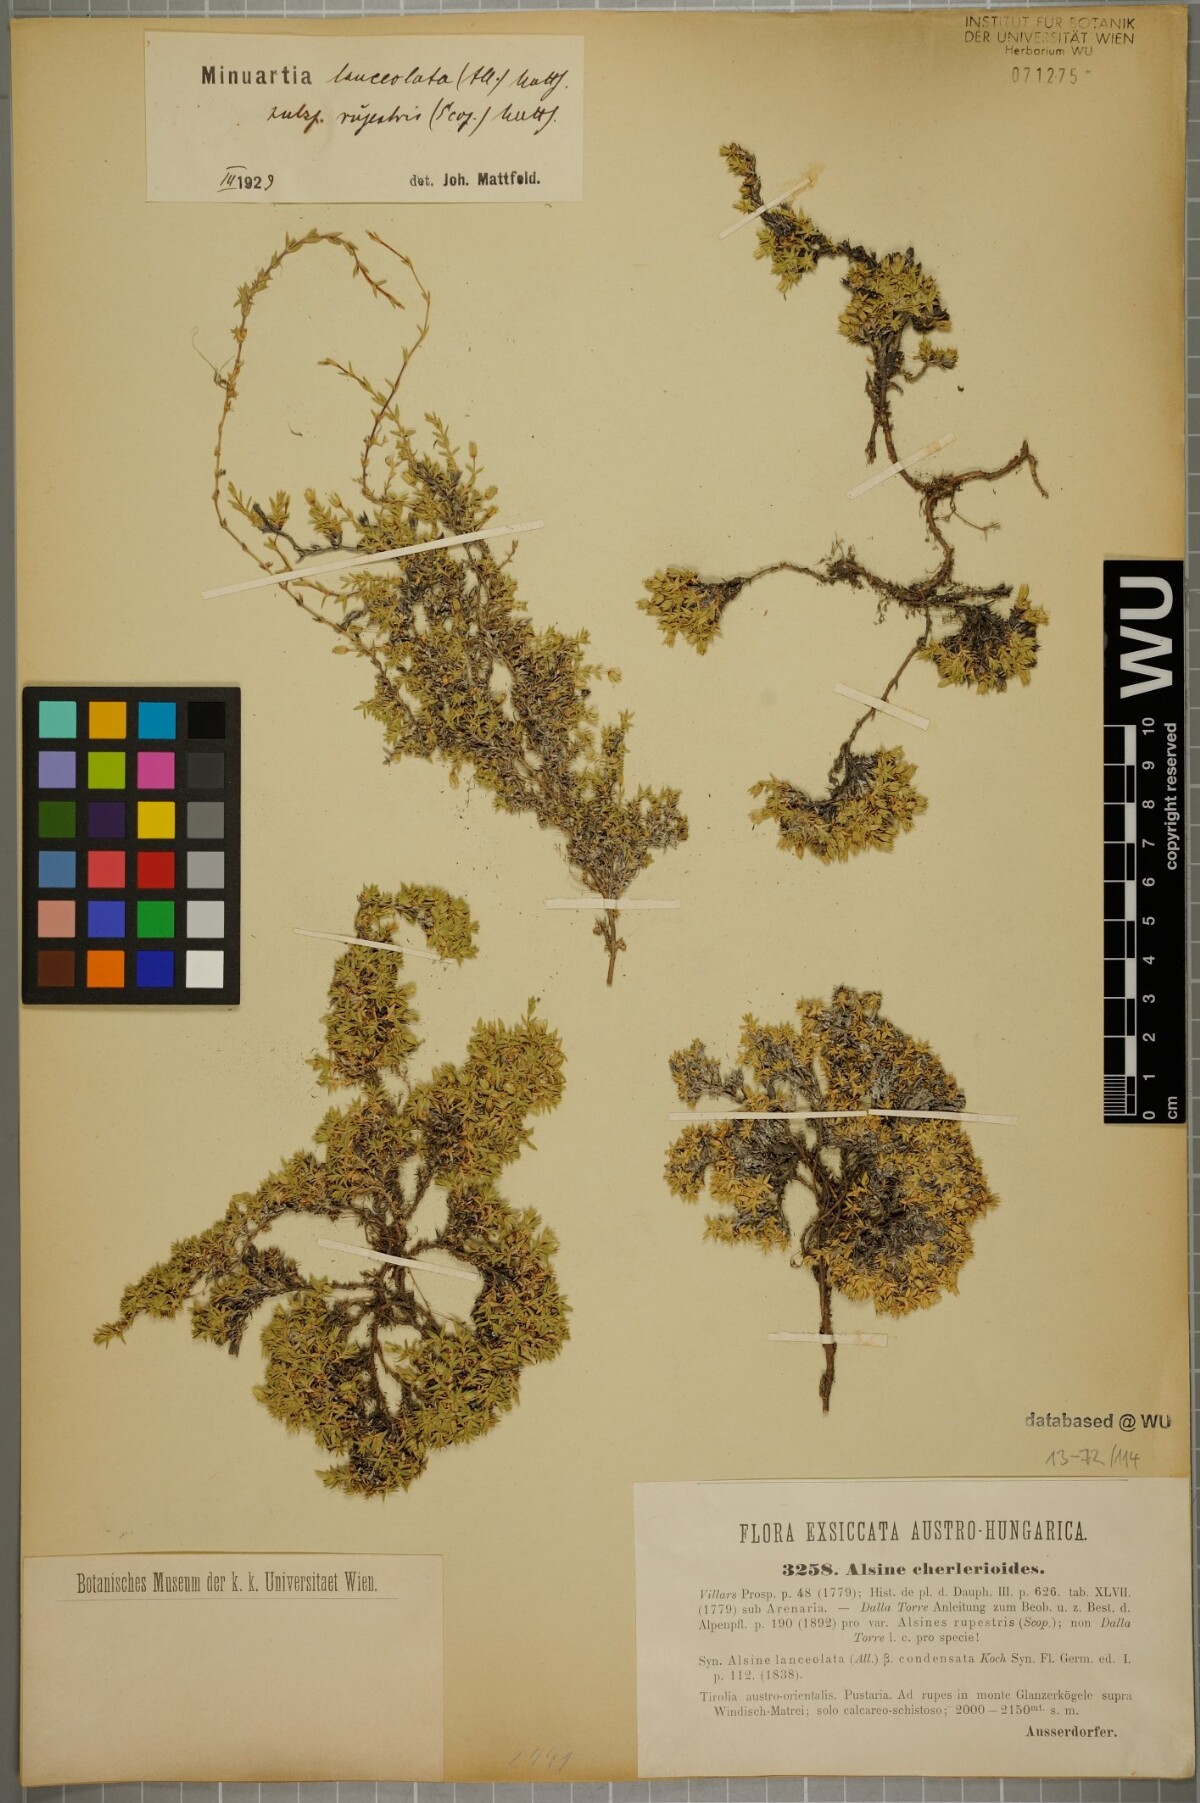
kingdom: Plantae
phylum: Tracheophyta
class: Magnoliopsida
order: Caryophyllales
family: Caryophyllaceae
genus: Facchinia
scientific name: Facchinia rupestris
